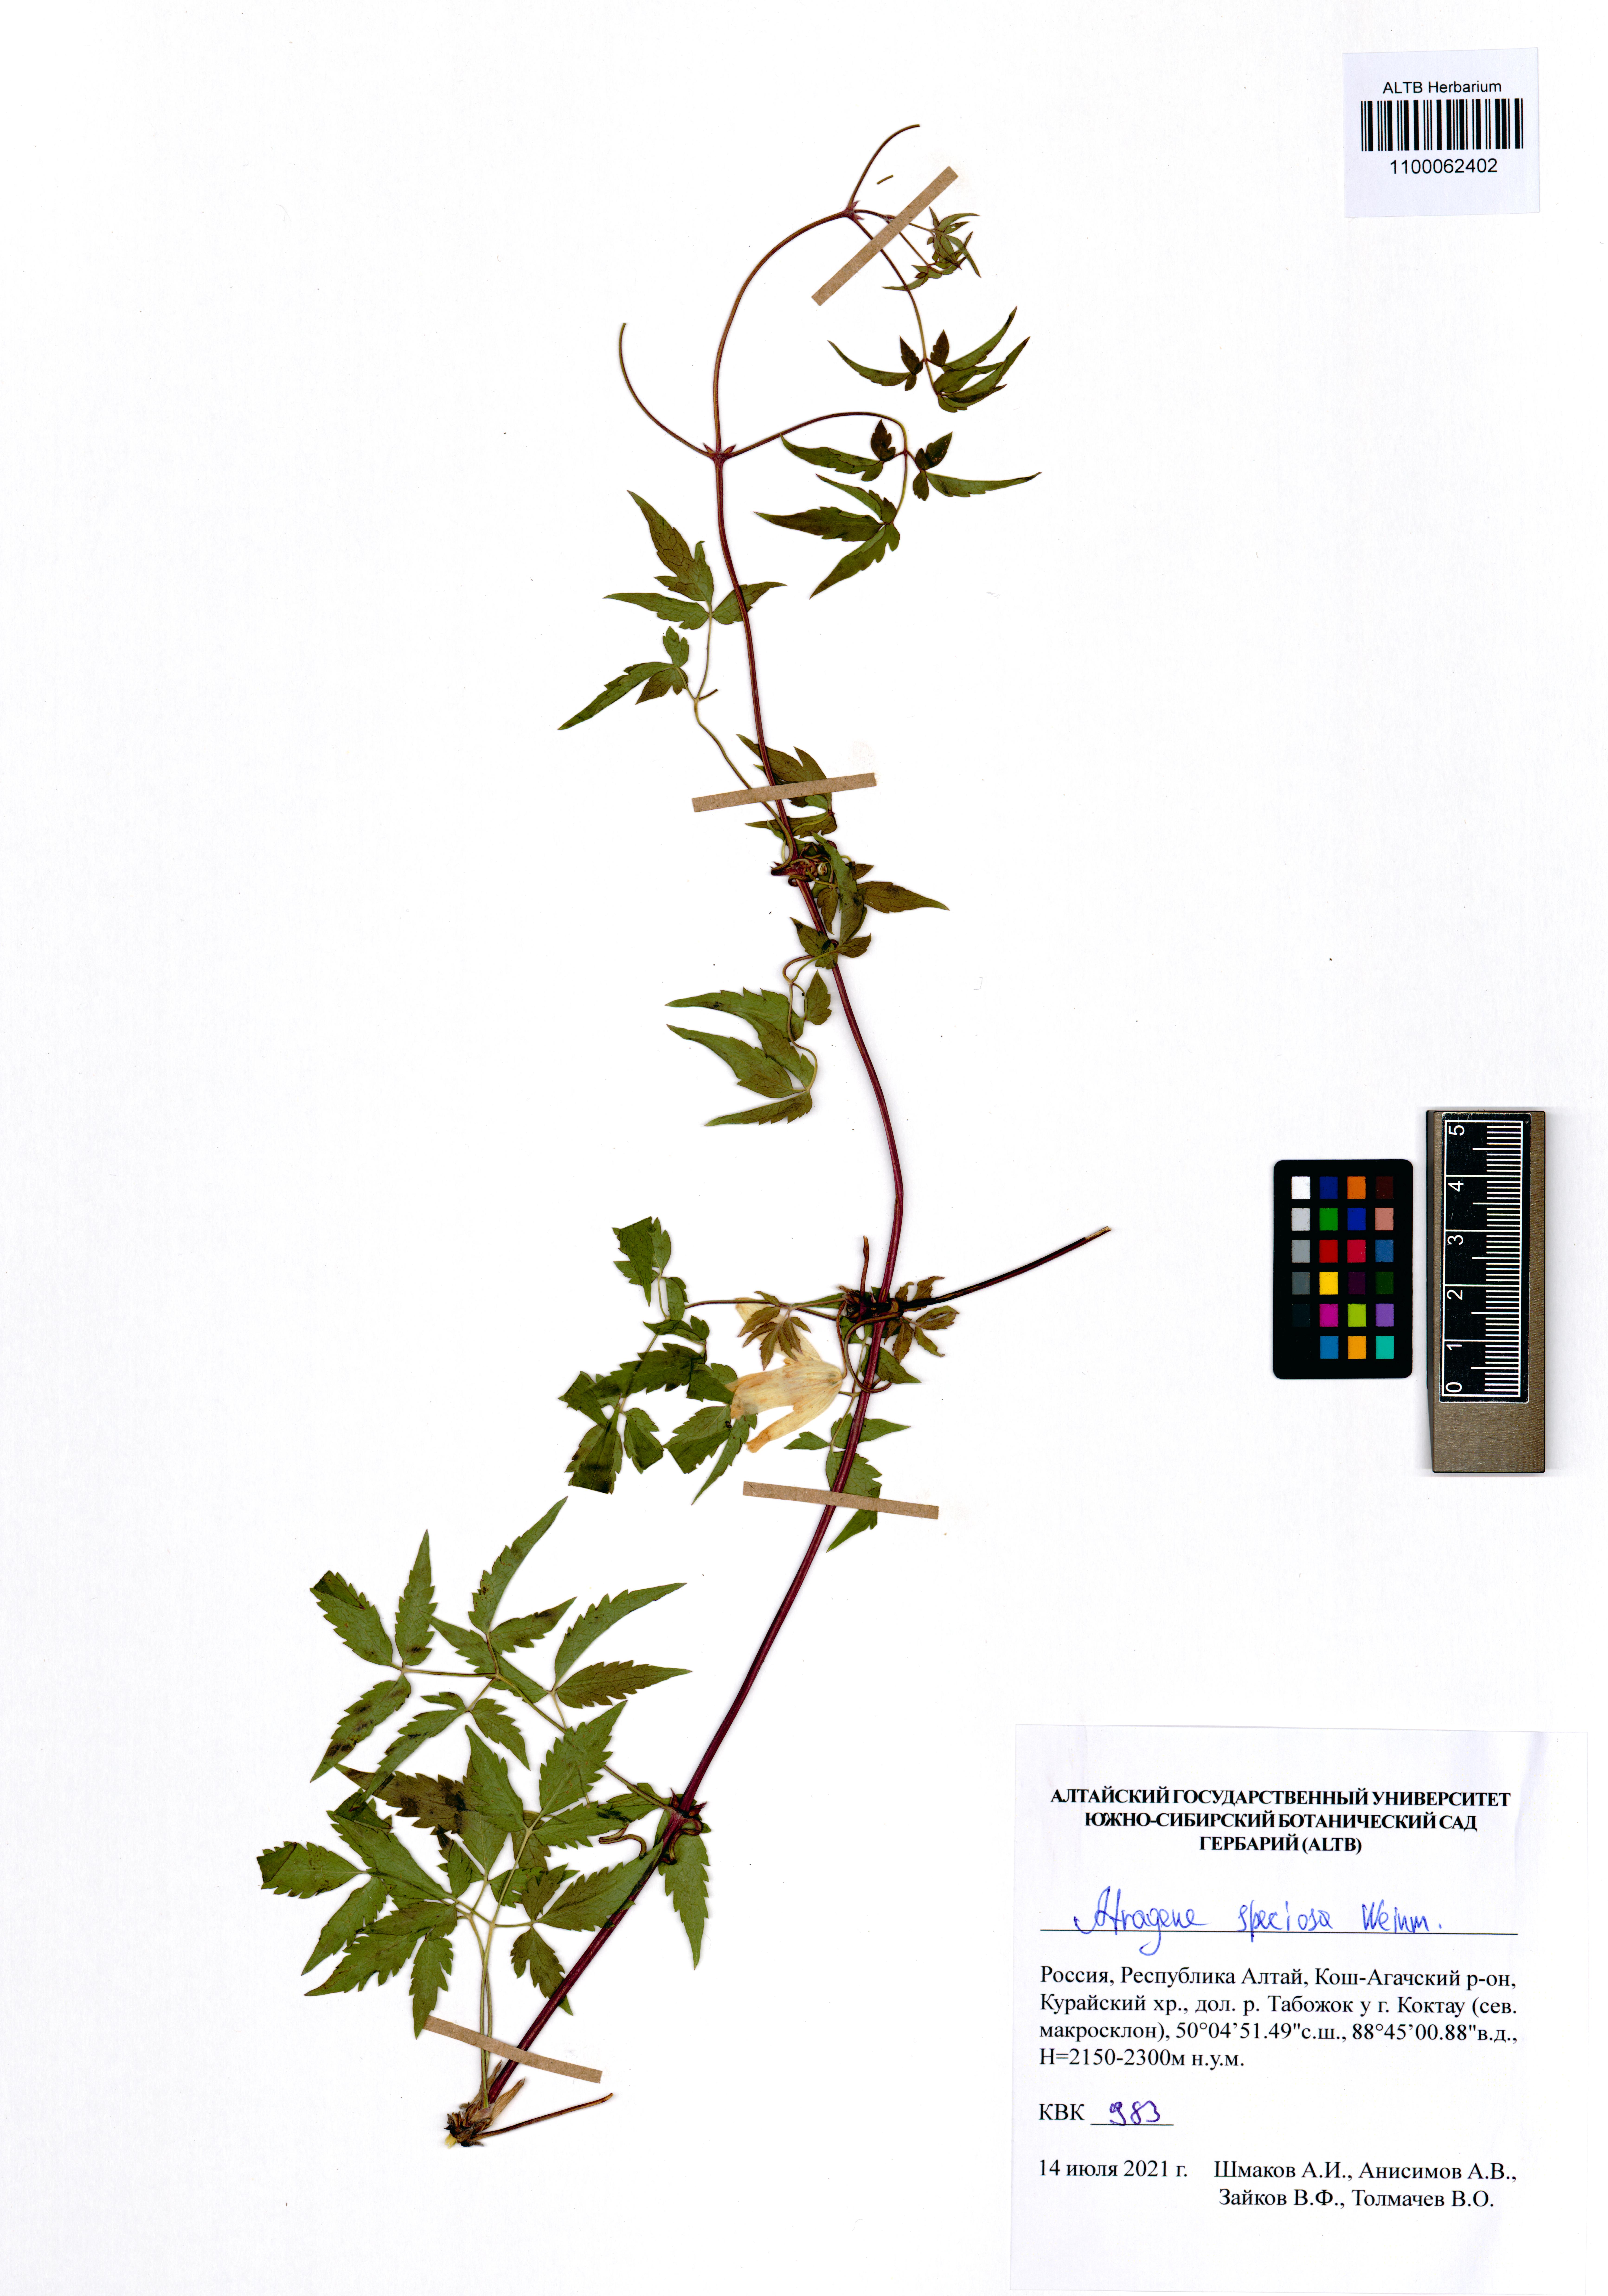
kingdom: Plantae
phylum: Tracheophyta
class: Magnoliopsida
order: Ranunculales
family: Ranunculaceae
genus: Clematis
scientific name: Clematis sibirica
